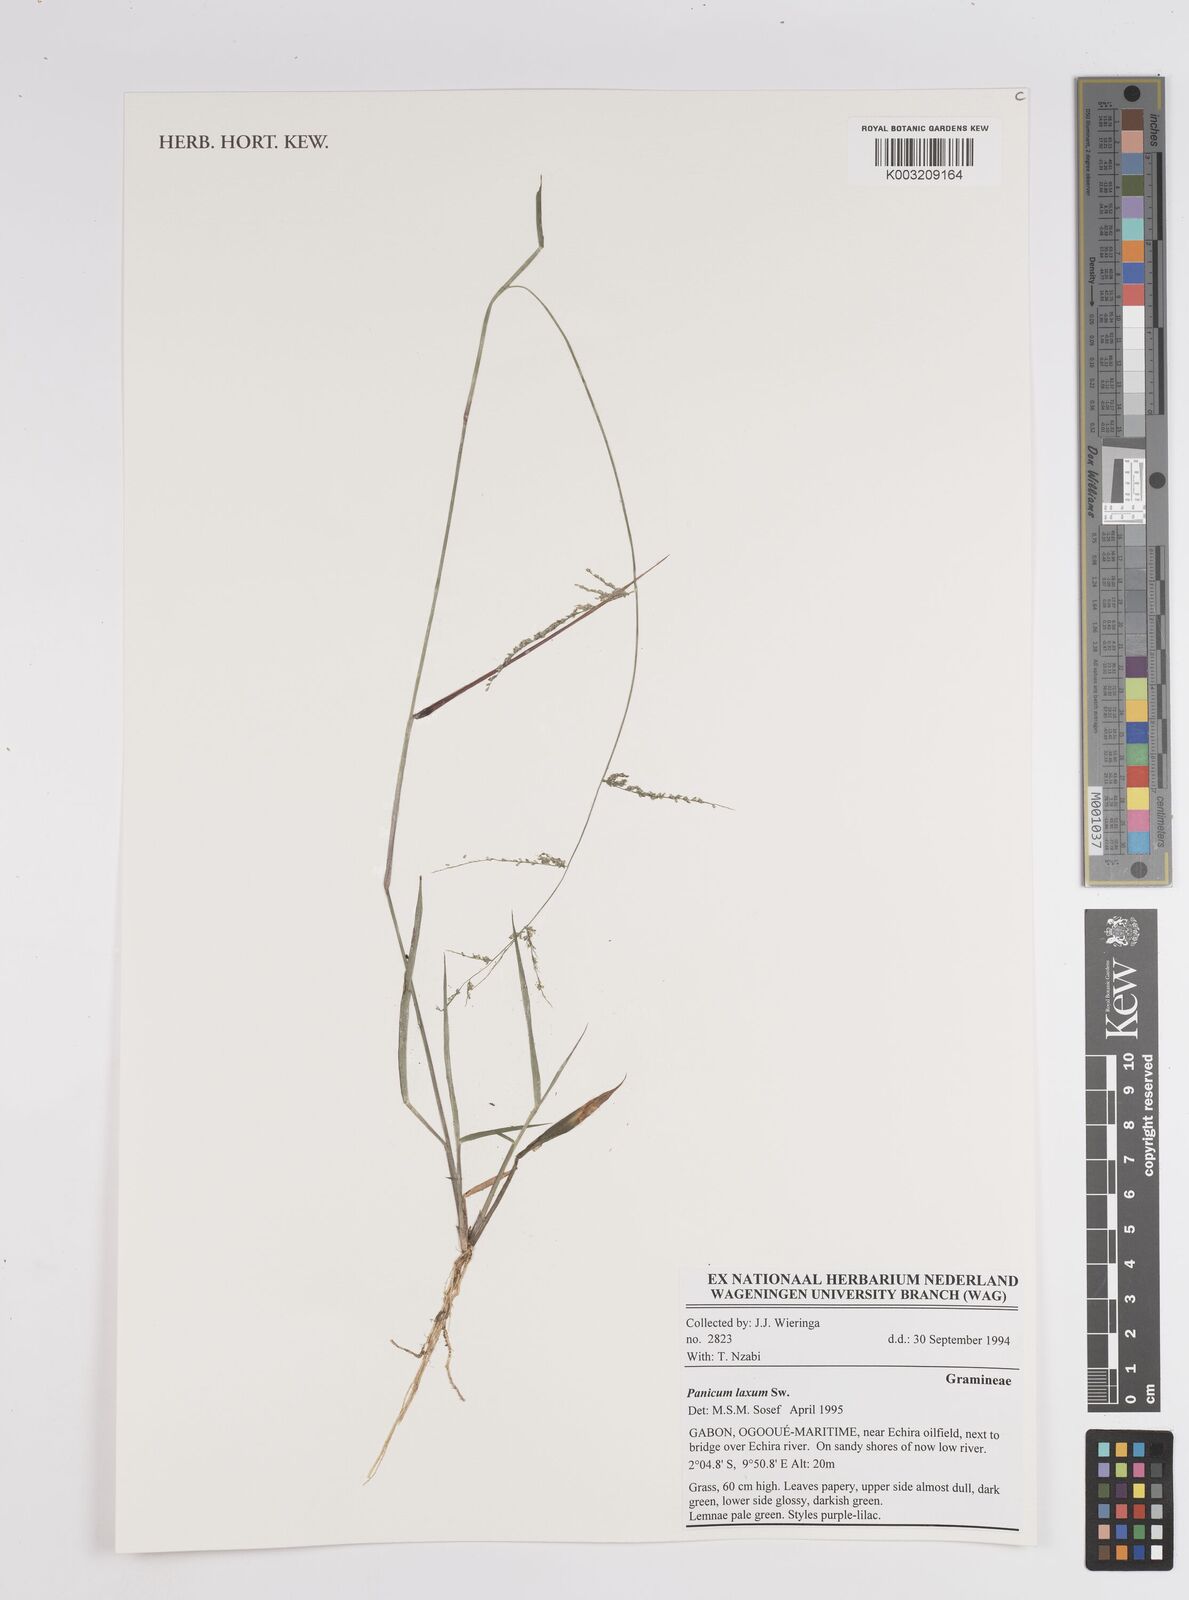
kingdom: Plantae
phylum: Tracheophyta
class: Liliopsida
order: Poales
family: Poaceae
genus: Steinchisma
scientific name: Steinchisma laxum
